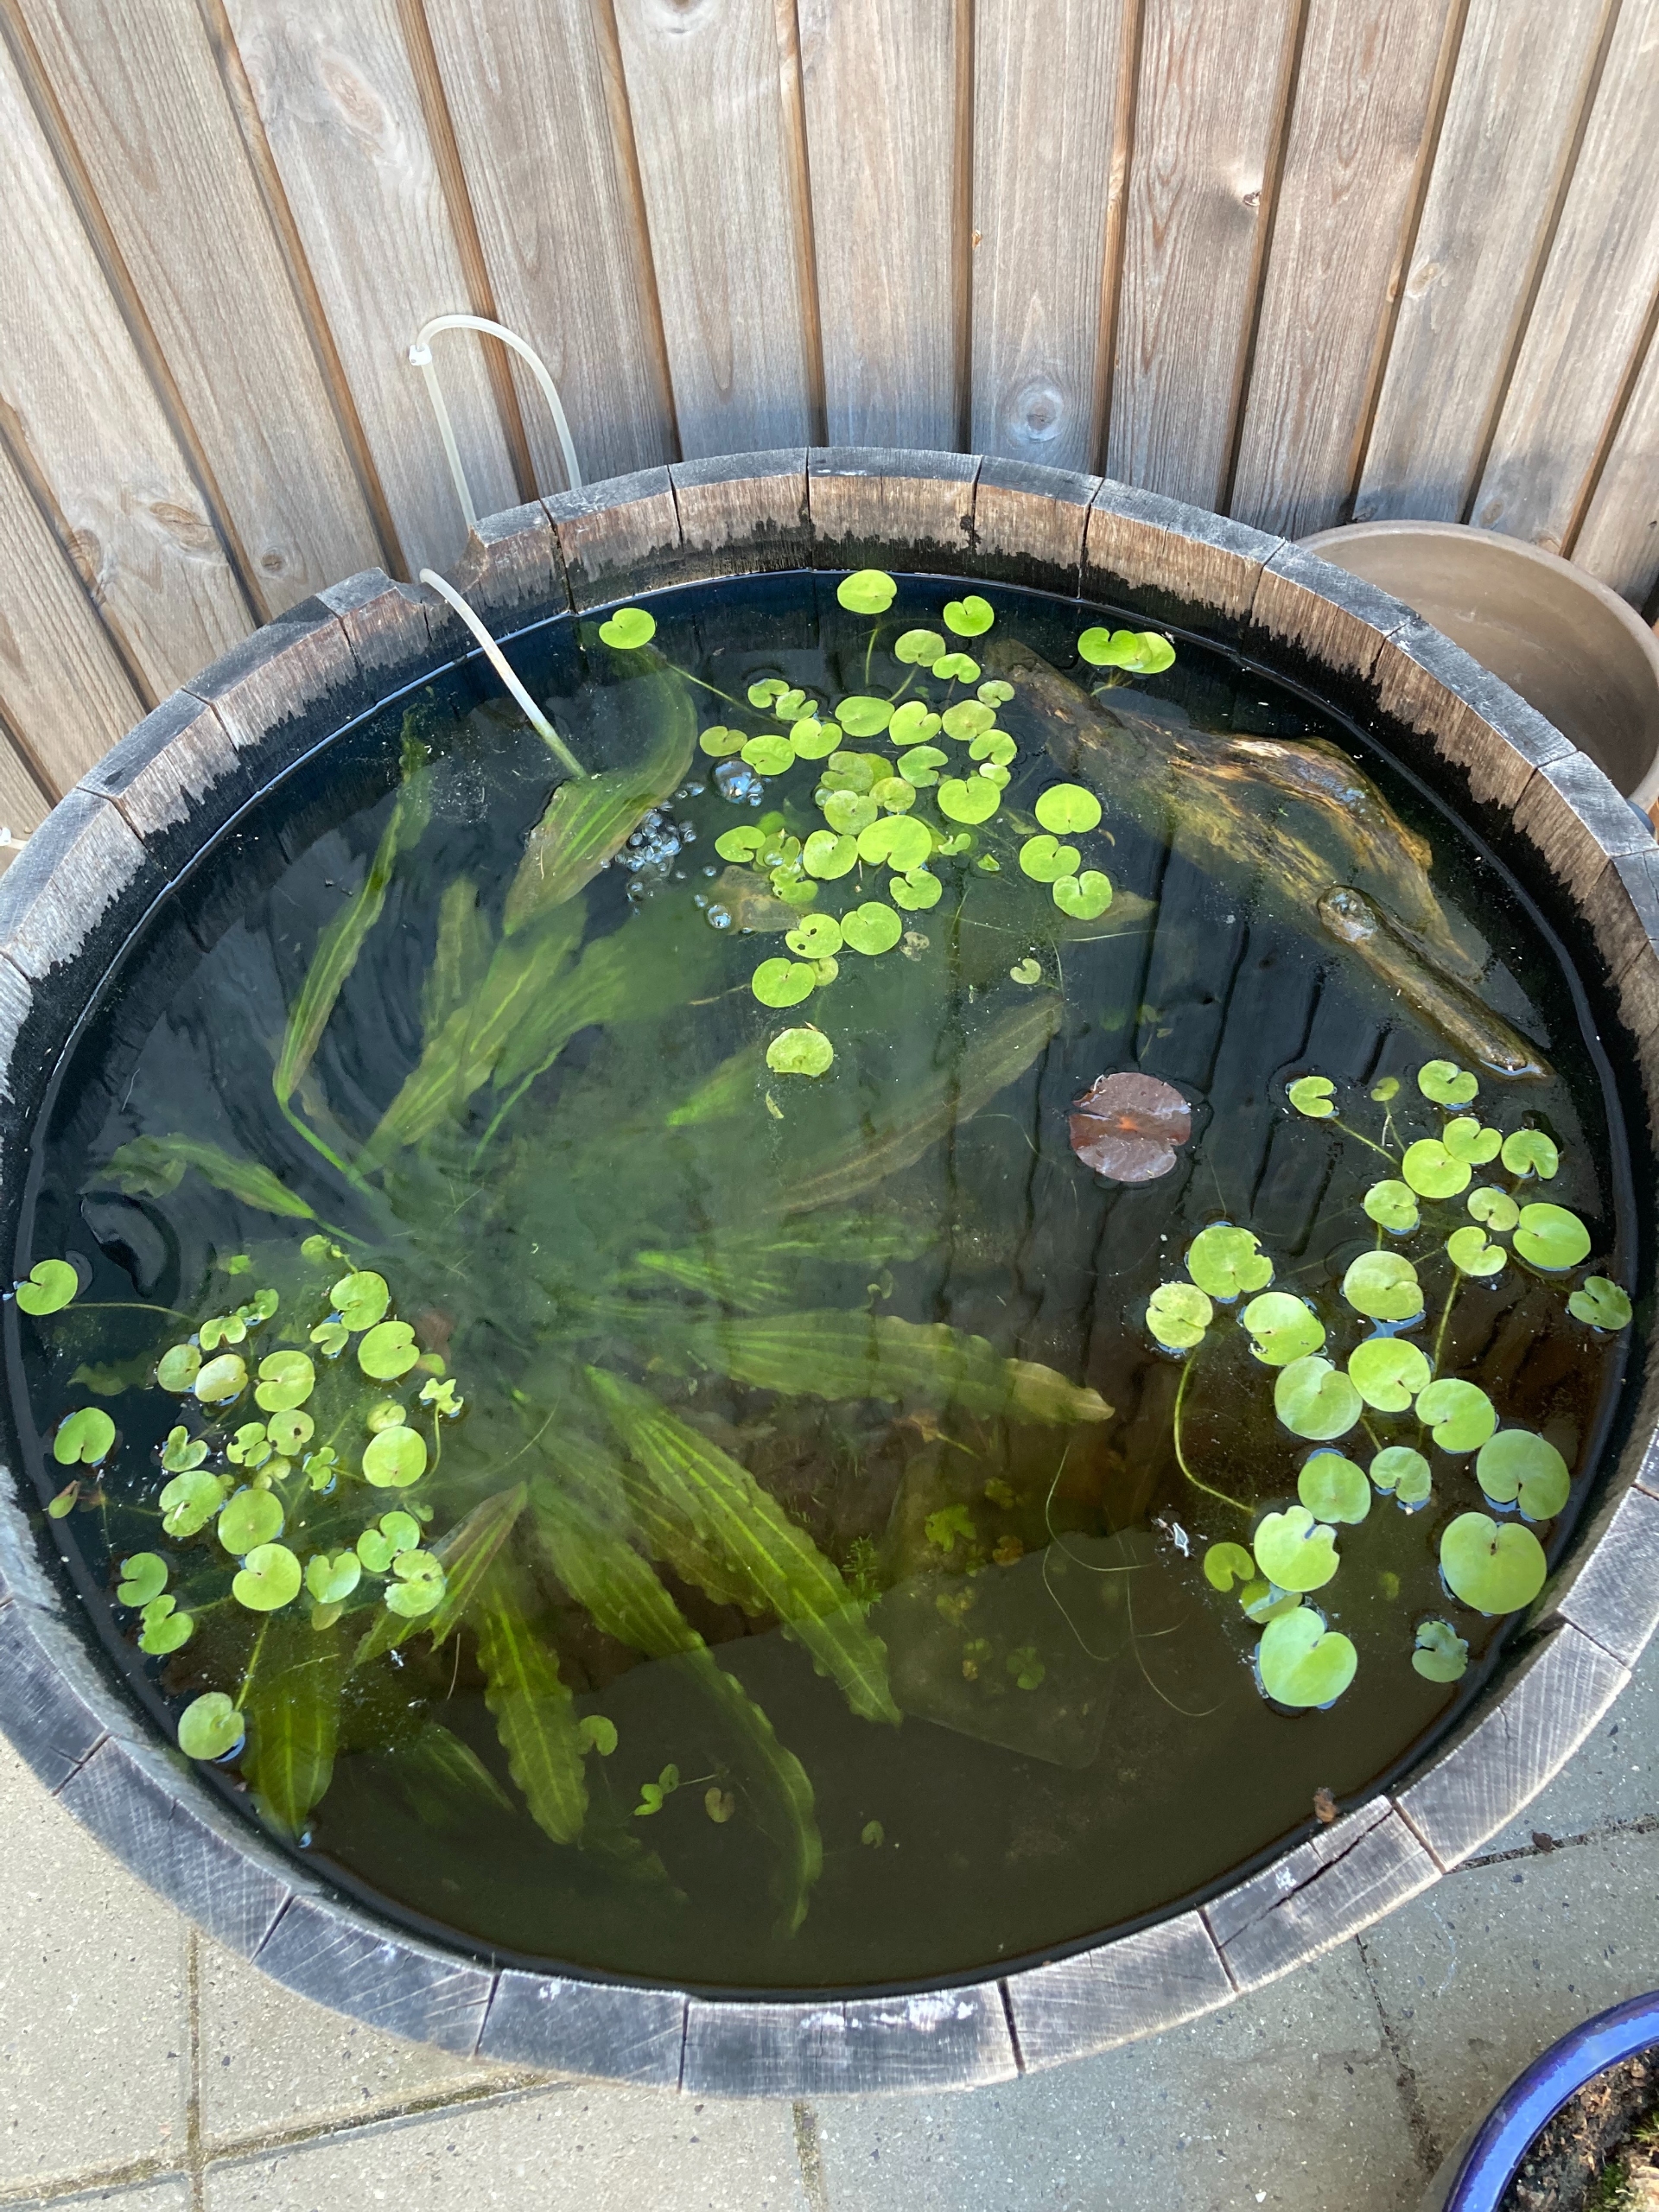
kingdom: Plantae
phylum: Tracheophyta
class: Liliopsida
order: Alismatales
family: Hydrocharitaceae
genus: Hydrocharis
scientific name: Hydrocharis morsus-ranae
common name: Frøbid
